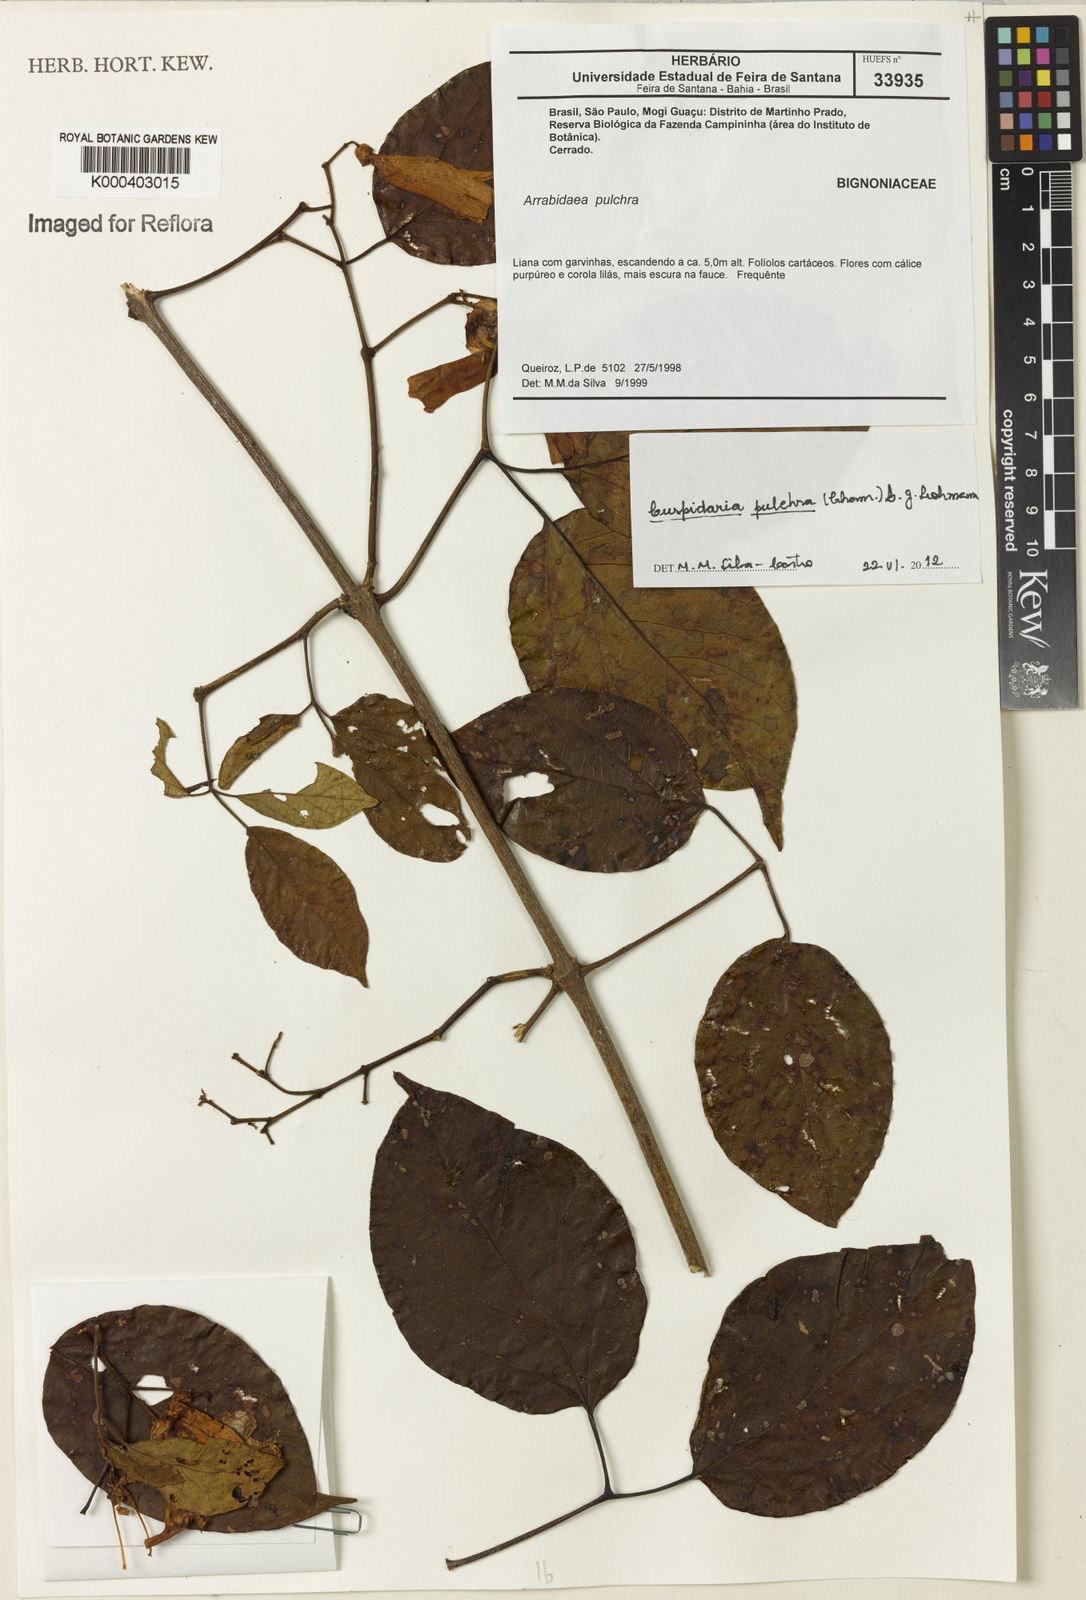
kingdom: Plantae
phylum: Tracheophyta
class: Magnoliopsida
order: Lamiales
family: Bignoniaceae
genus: Cuspidaria
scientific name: Cuspidaria pulchra
